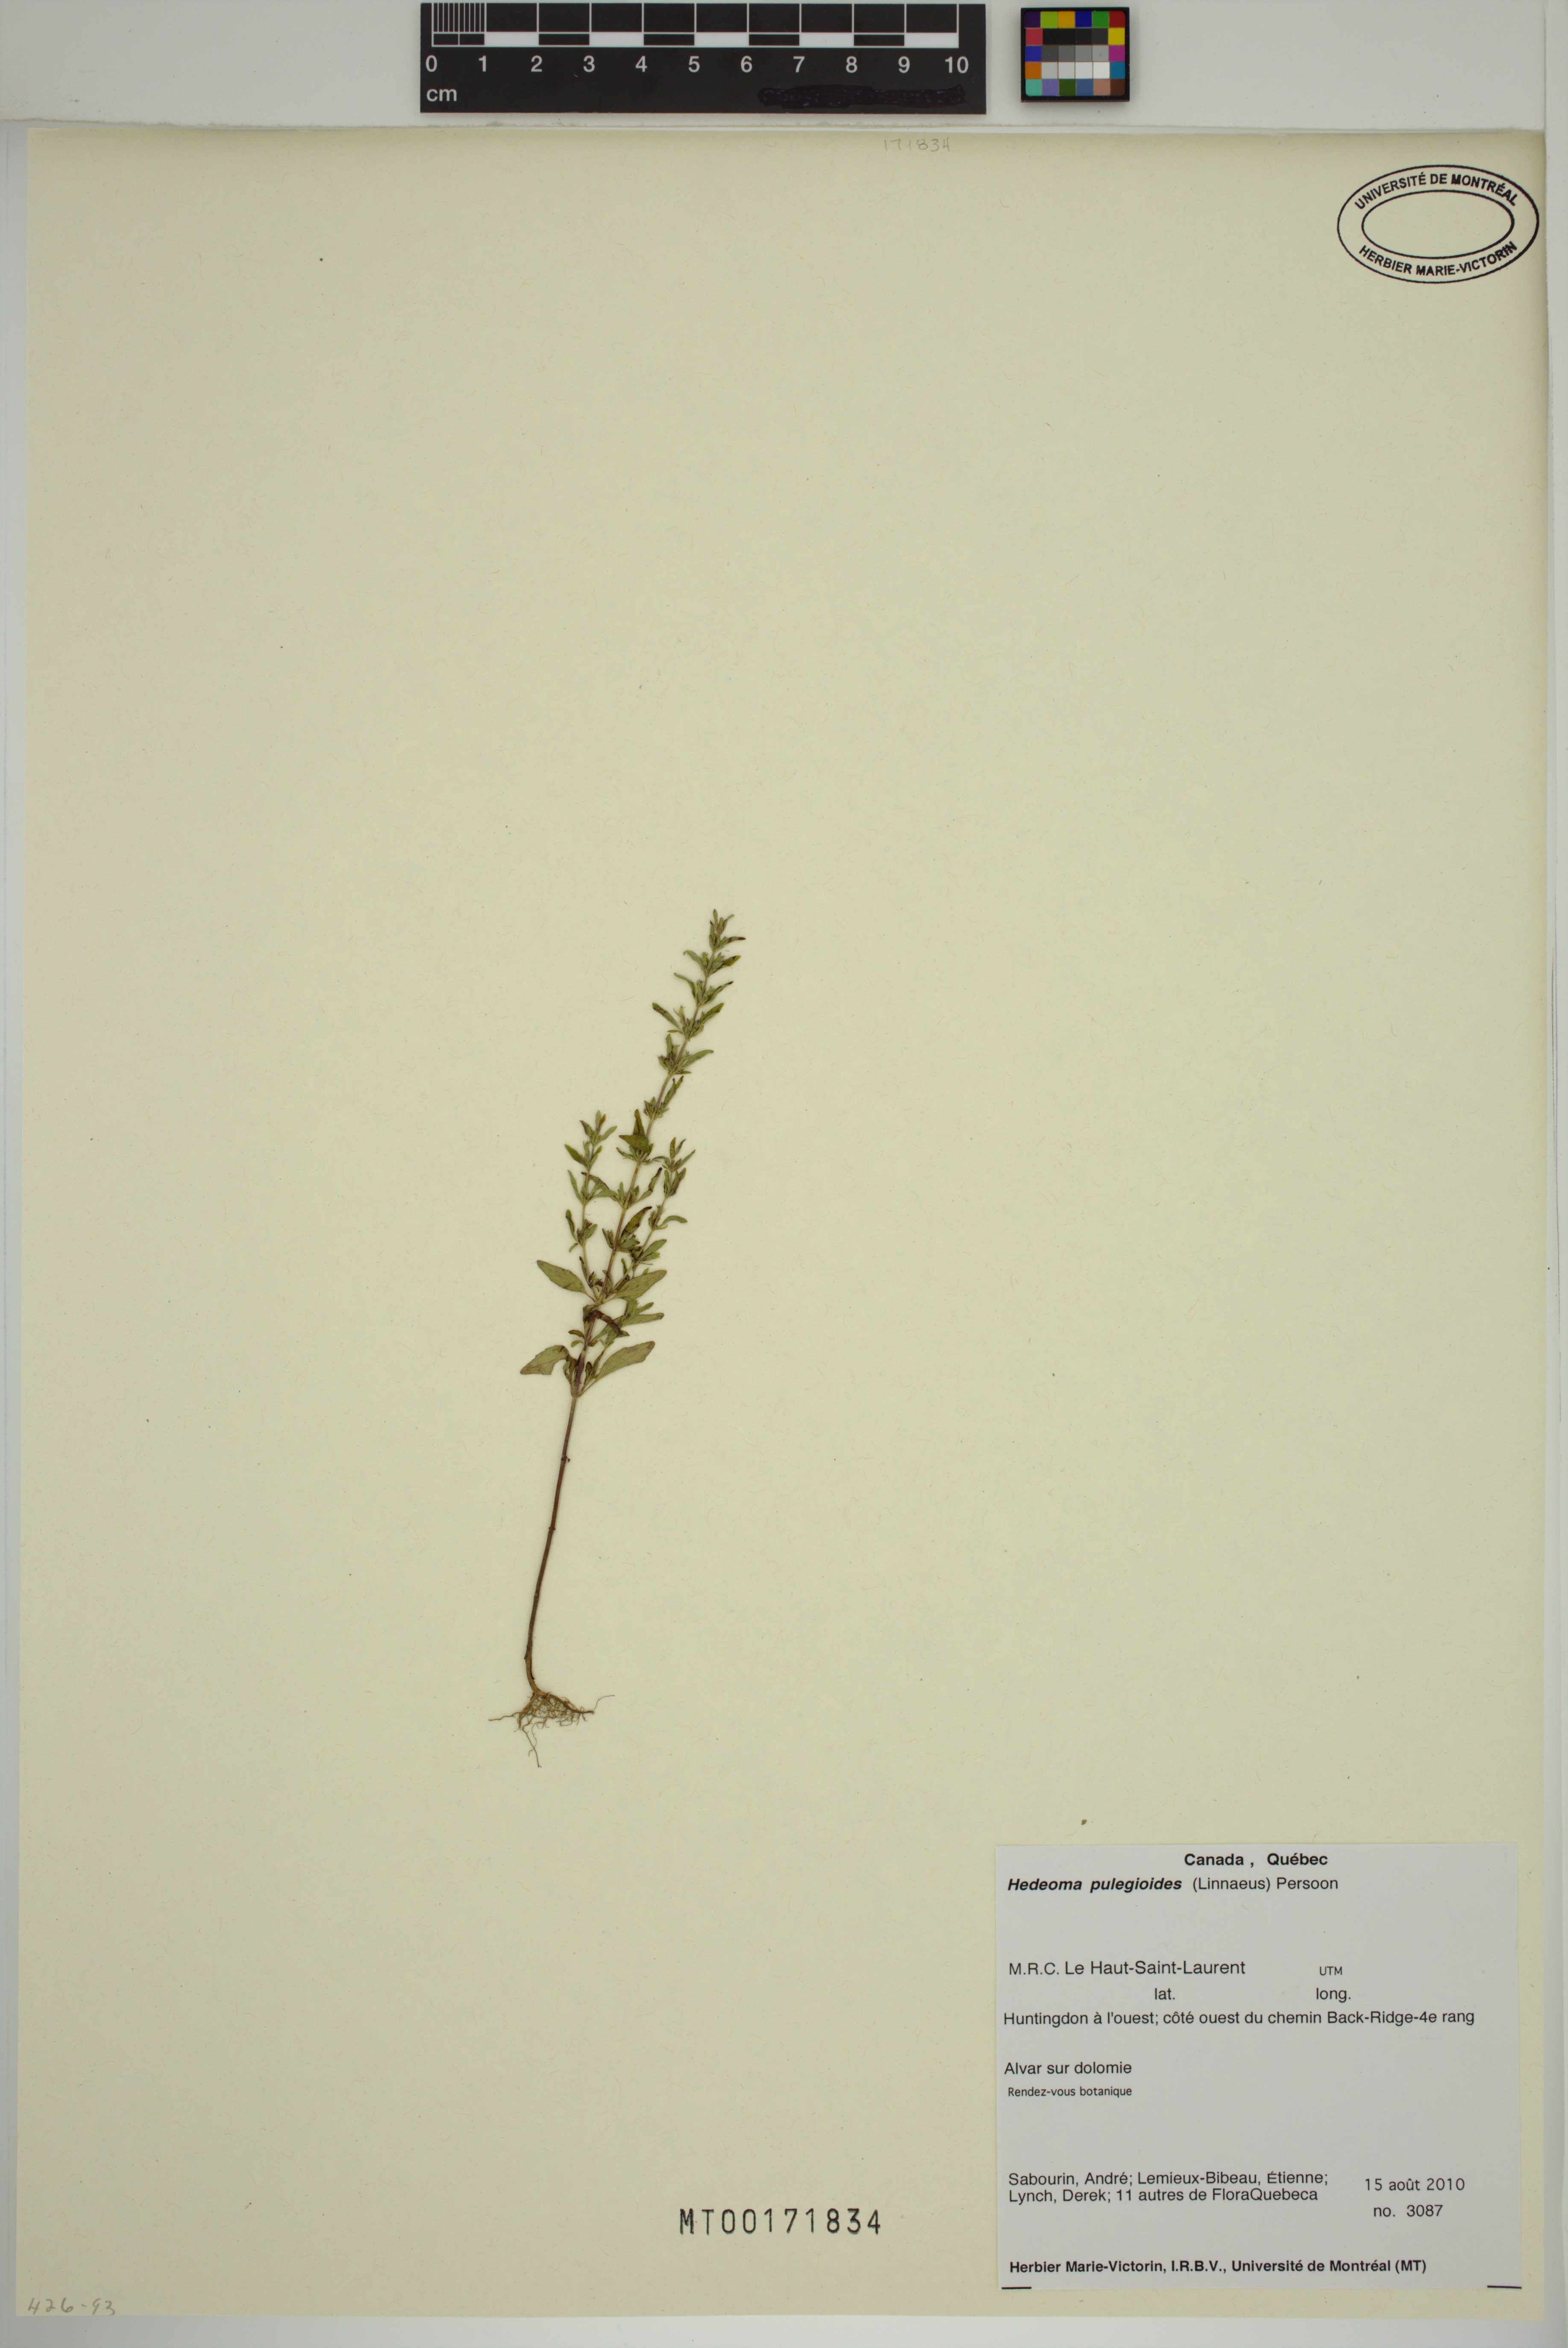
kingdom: Plantae
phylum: Tracheophyta
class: Magnoliopsida
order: Lamiales
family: Lamiaceae
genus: Hedeoma
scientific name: Hedeoma pulegioides
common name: American false pennyroyal
